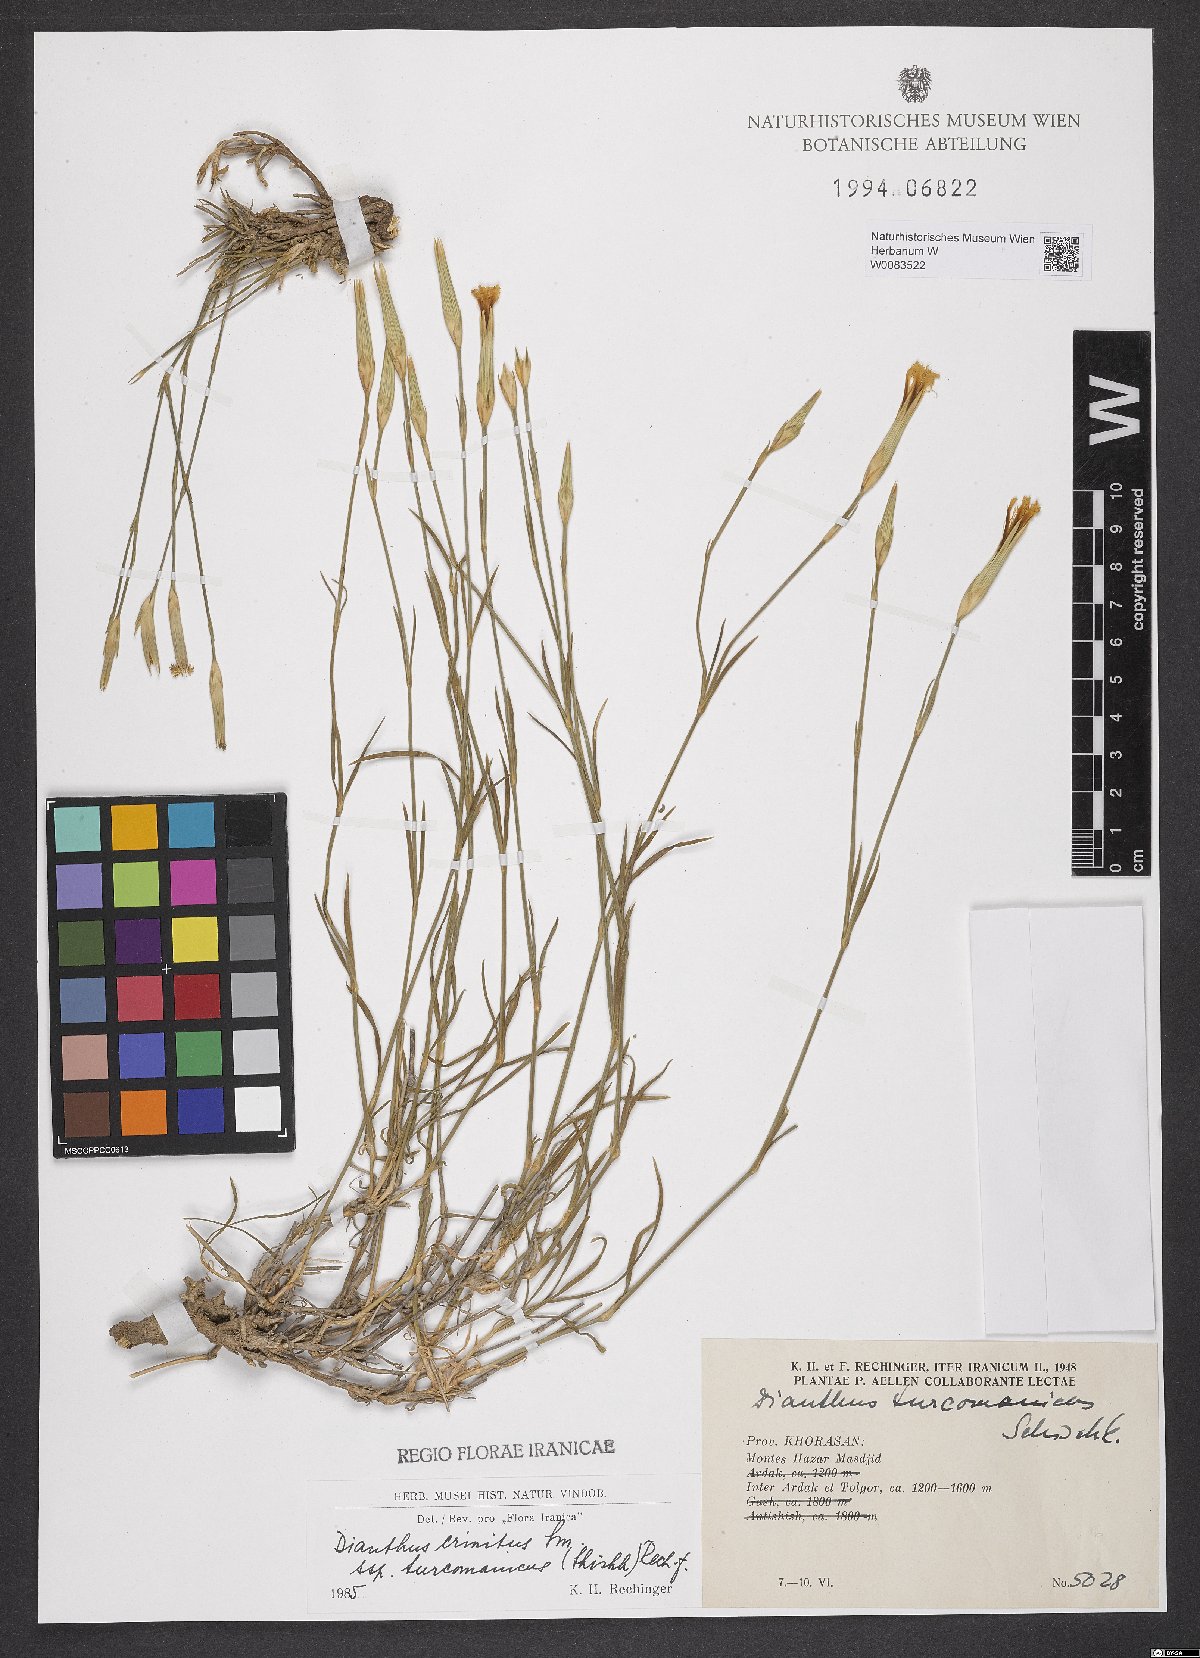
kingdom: Plantae
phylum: Tracheophyta
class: Magnoliopsida
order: Caryophyllales
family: Caryophyllaceae
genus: Dianthus
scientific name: Dianthus turkestanicus
